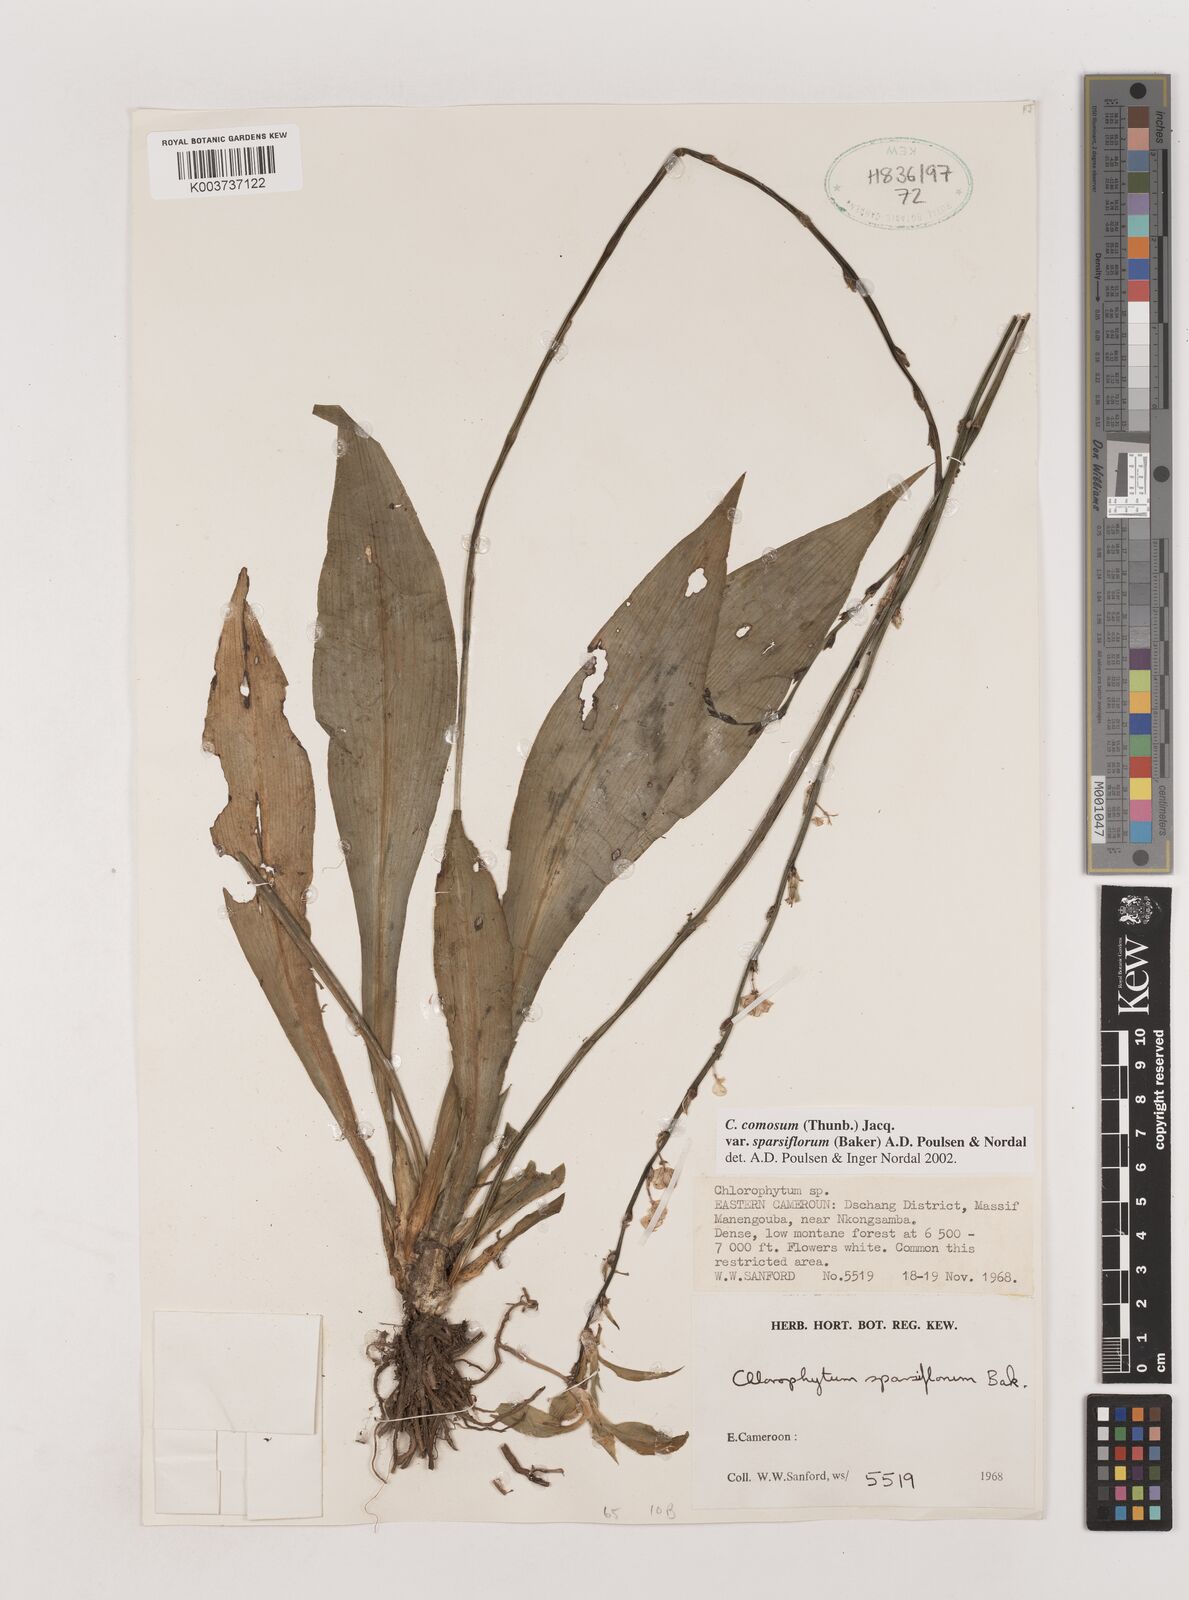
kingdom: Plantae
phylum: Tracheophyta
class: Liliopsida
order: Asparagales
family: Asparagaceae
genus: Chlorophytum
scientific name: Chlorophytum sparsiflorum
